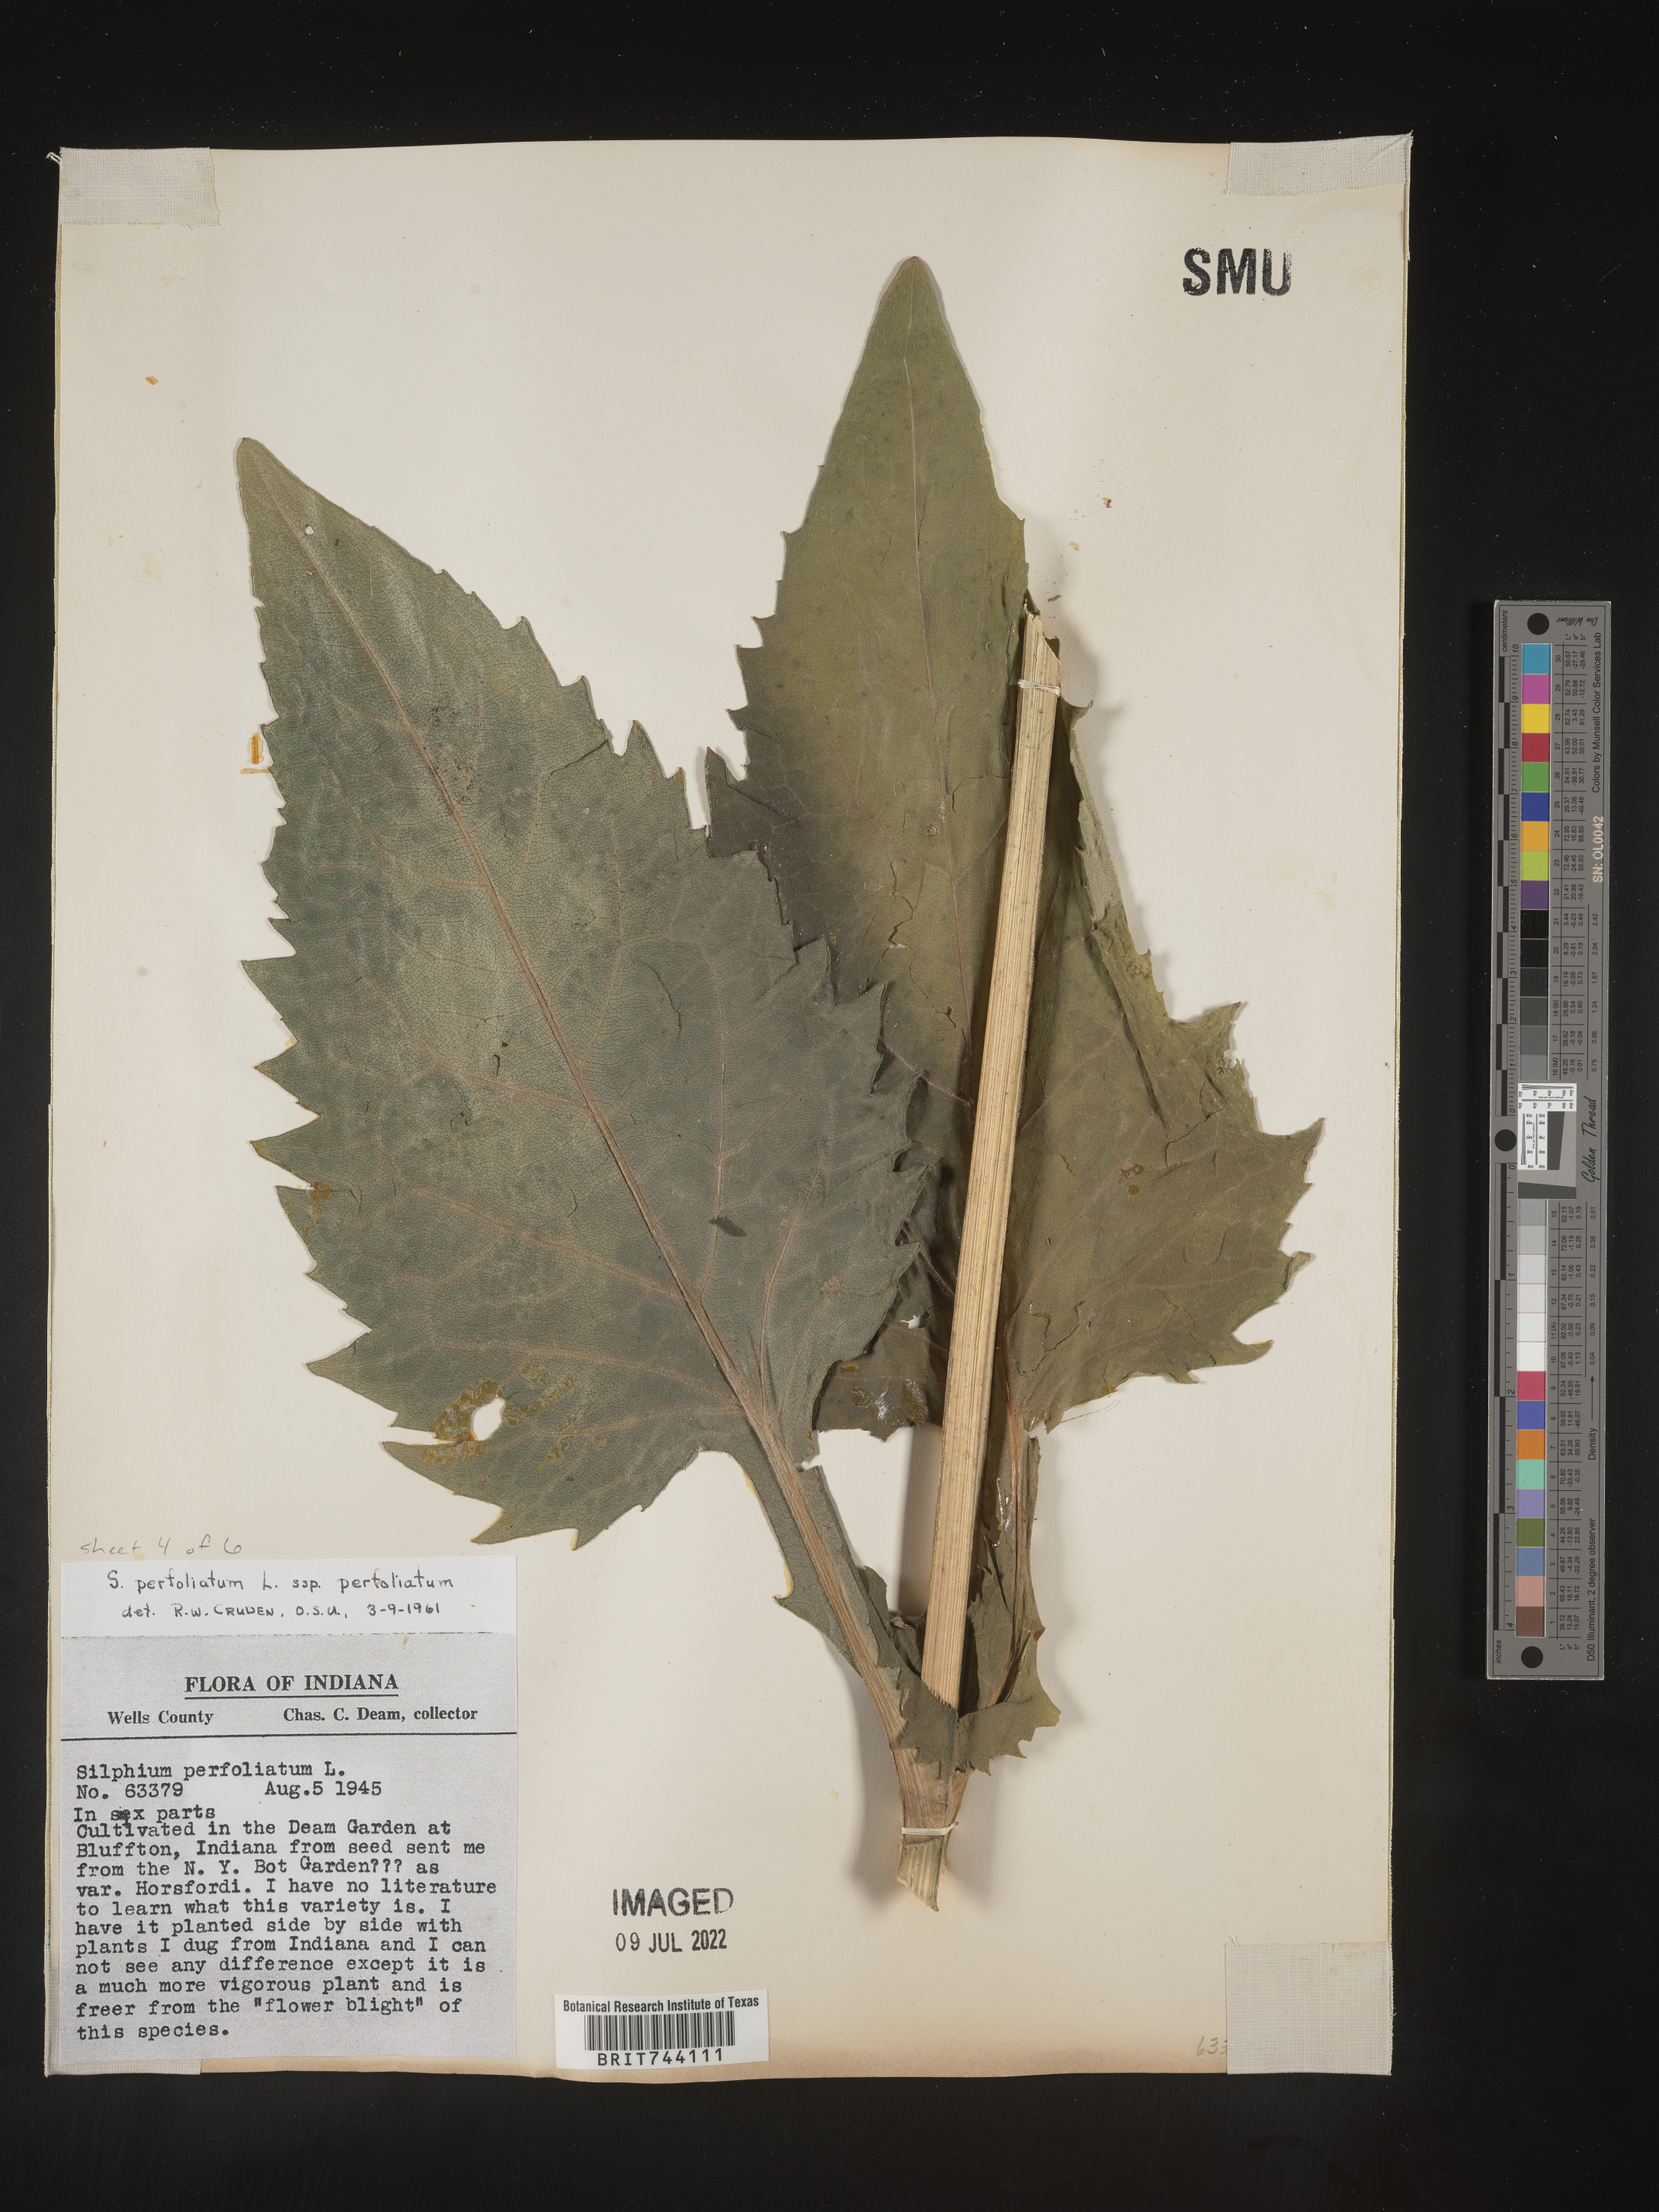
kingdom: Plantae
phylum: Tracheophyta
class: Magnoliopsida
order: Asterales
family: Asteraceae
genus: Silphium
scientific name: Silphium
